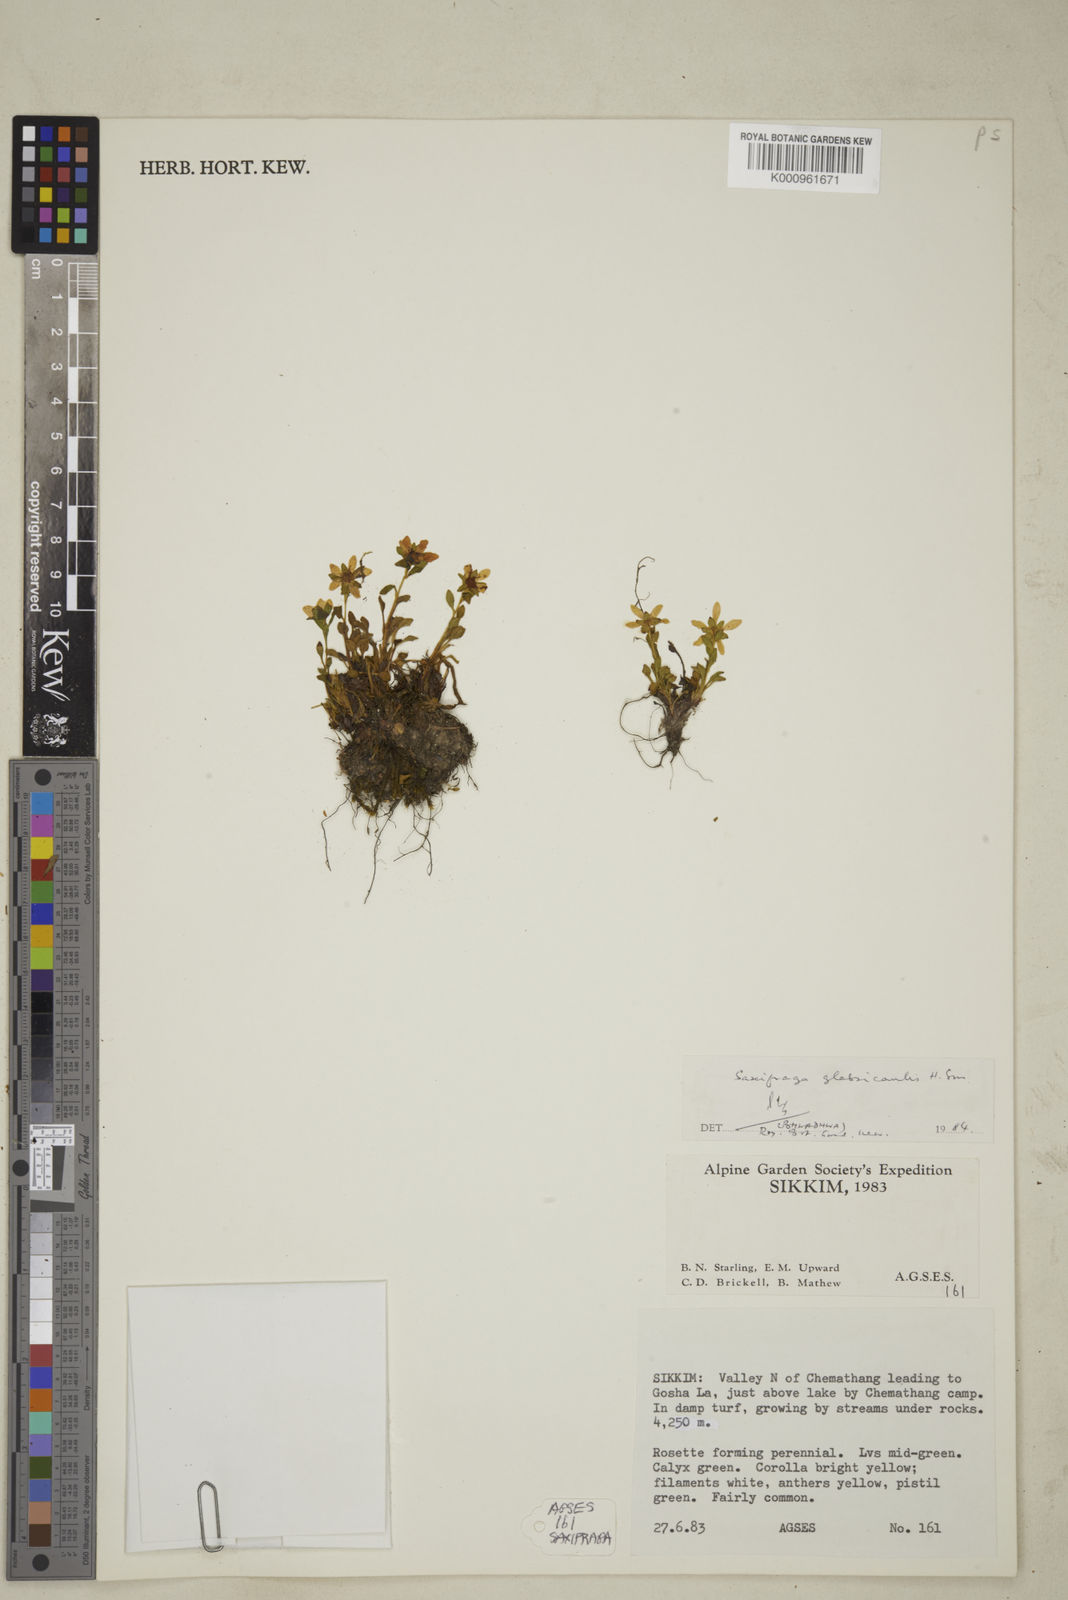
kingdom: Plantae
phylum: Tracheophyta
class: Magnoliopsida
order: Saxifragales
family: Saxifragaceae
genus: Saxifraga
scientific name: Saxifraga glabricaulis
